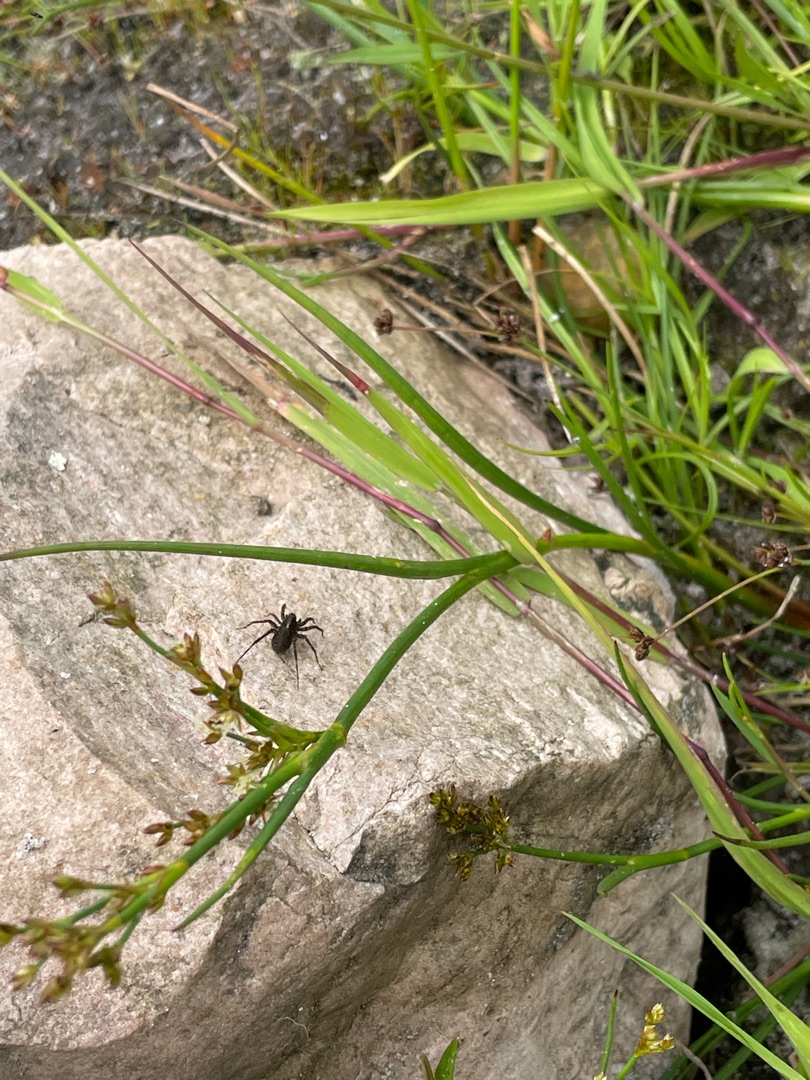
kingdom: Animalia
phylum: Arthropoda
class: Arachnida
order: Araneae
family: Lycosidae
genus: Pardosa
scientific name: Pardosa
